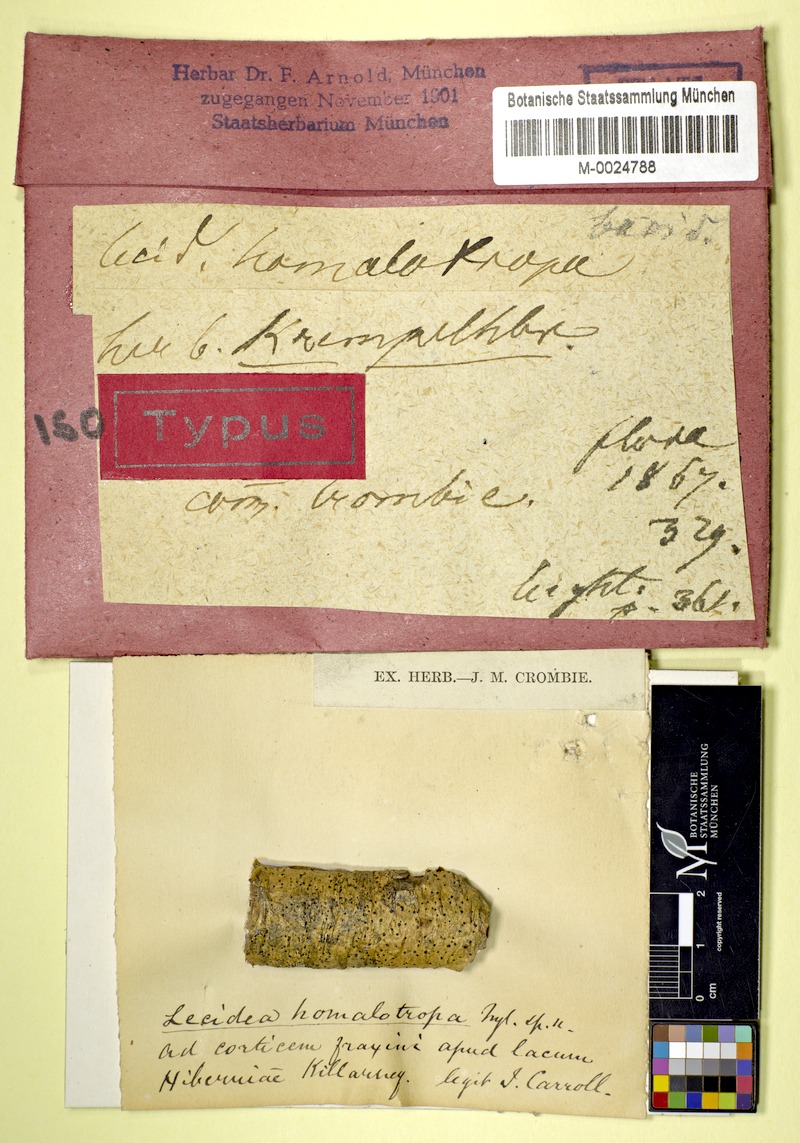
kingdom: Fungi
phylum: Ascomycota
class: Arthoniomycetes
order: Arthoniales
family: Roccellaceae
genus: Bactrospora
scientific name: Bactrospora homalotropa
